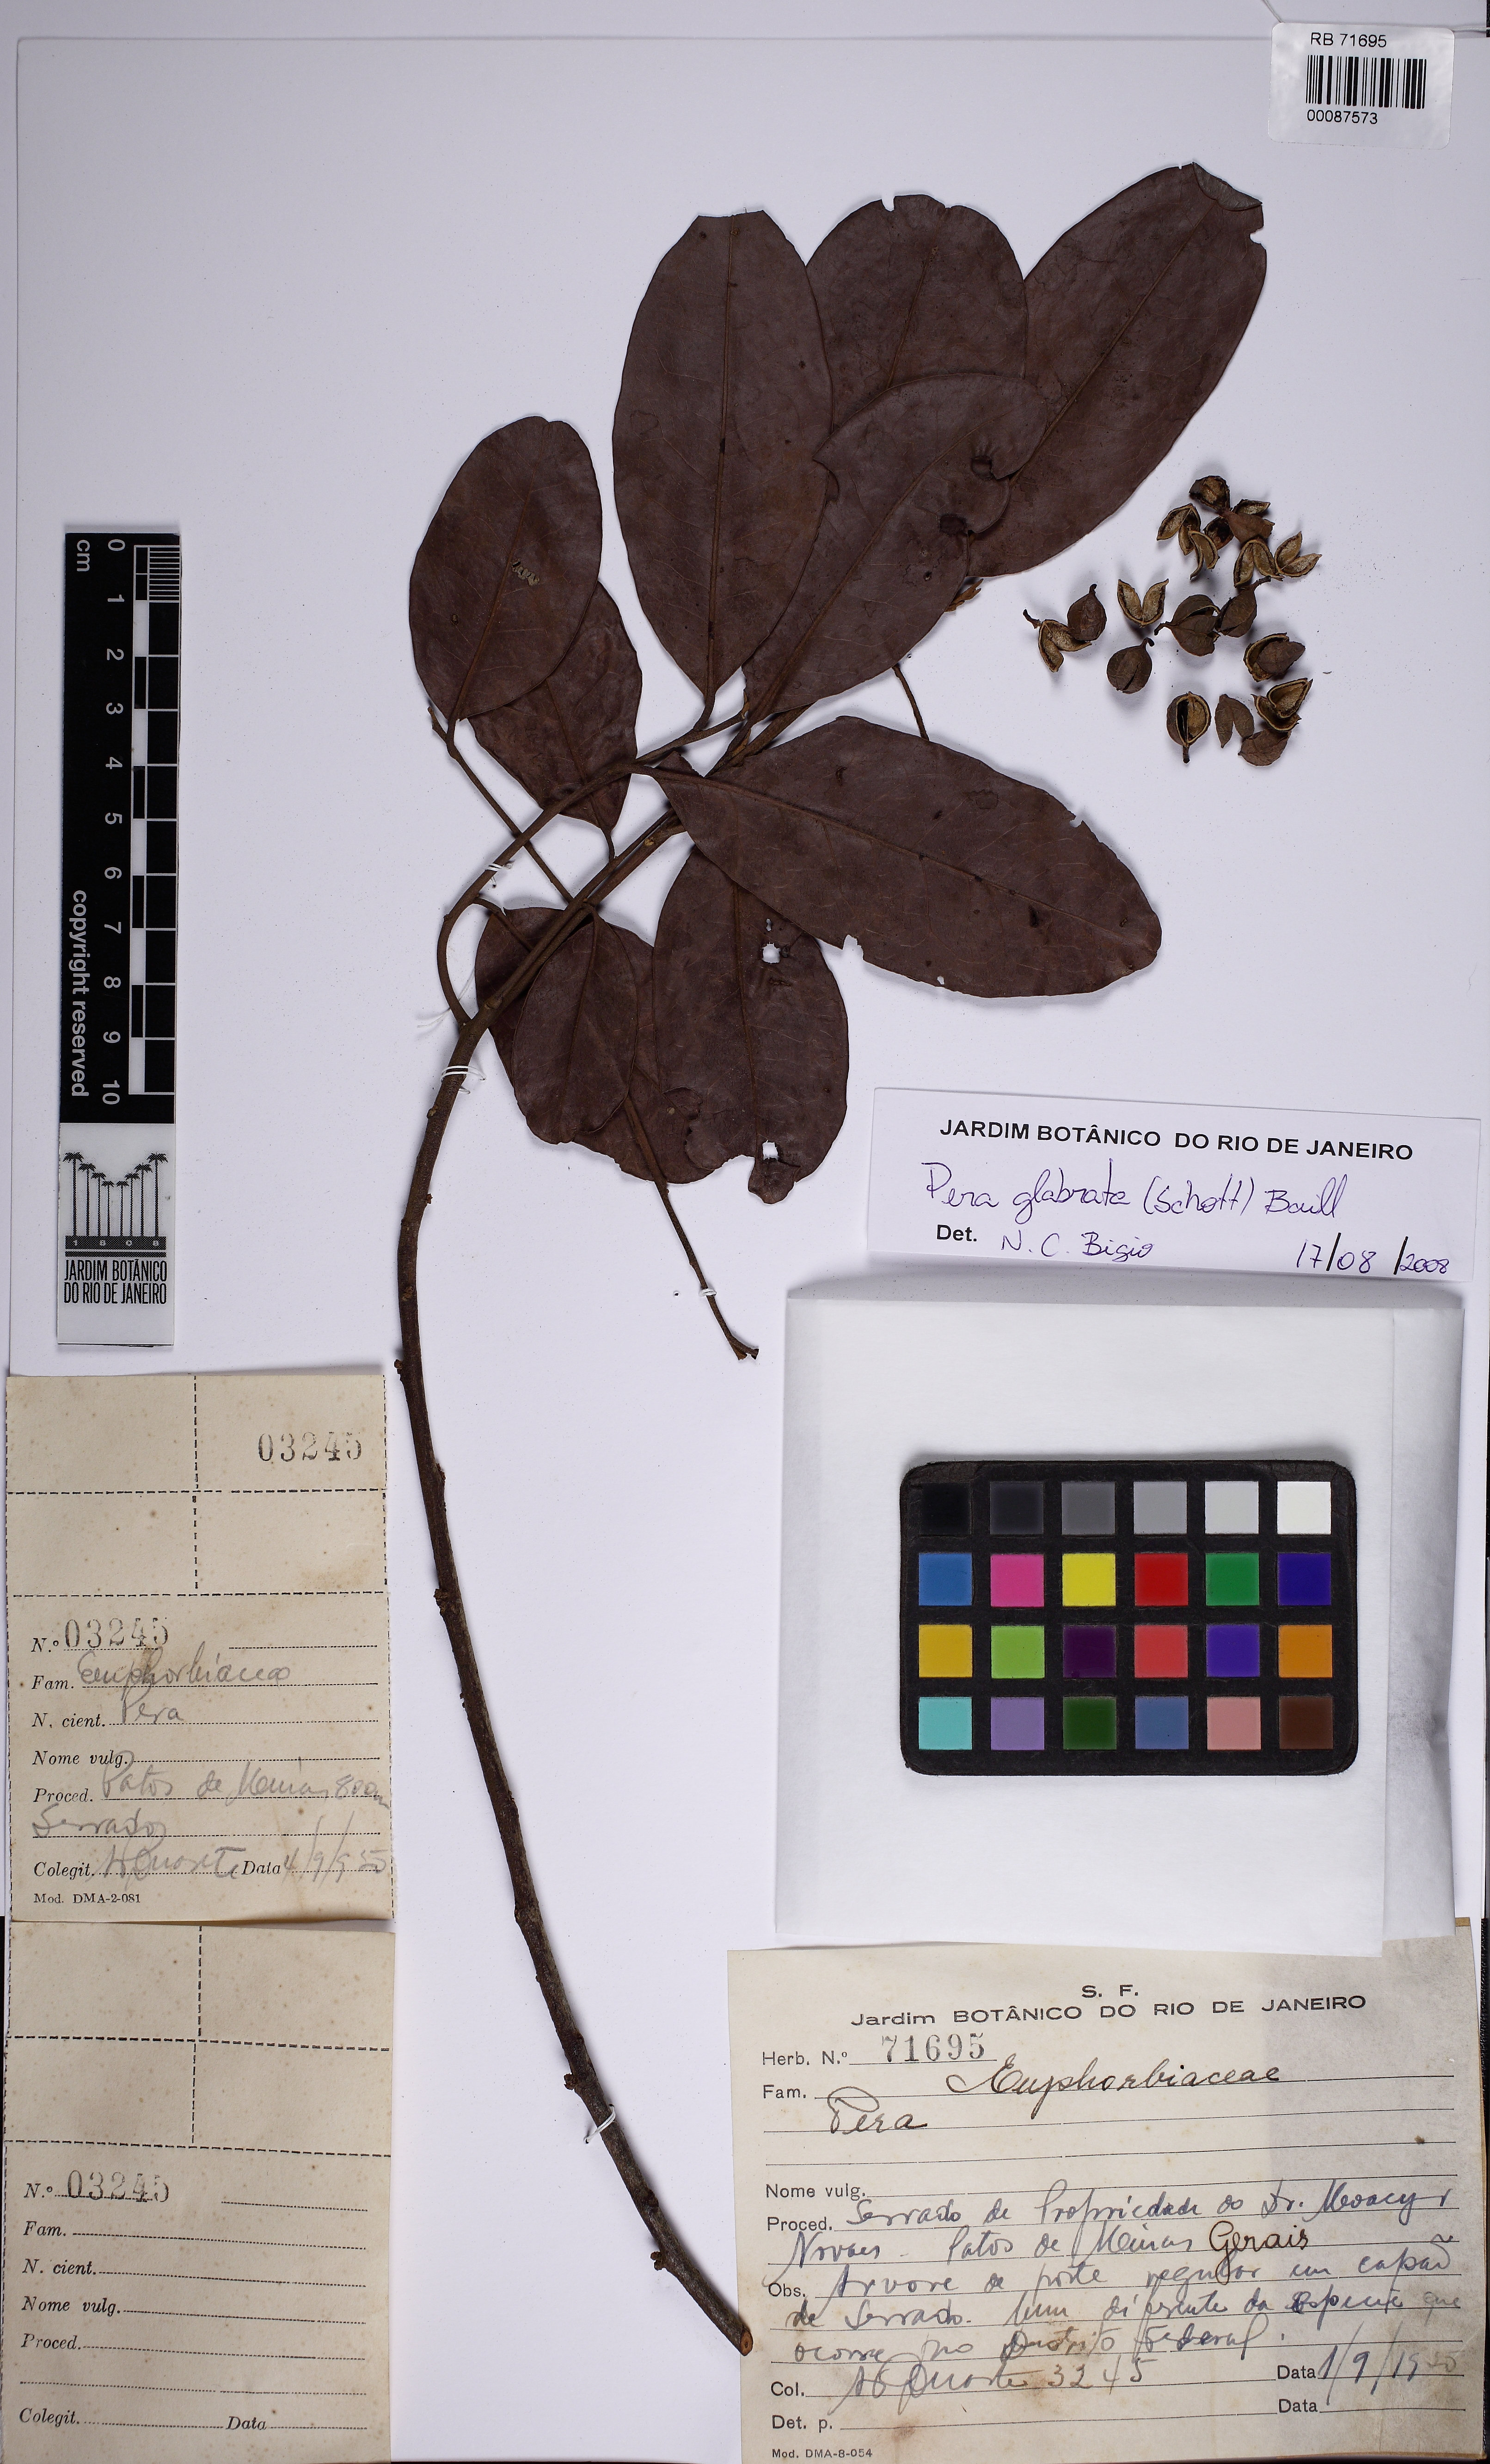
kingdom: Plantae
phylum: Tracheophyta
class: Magnoliopsida
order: Malpighiales
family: Peraceae
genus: Pera
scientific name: Pera glabrata
